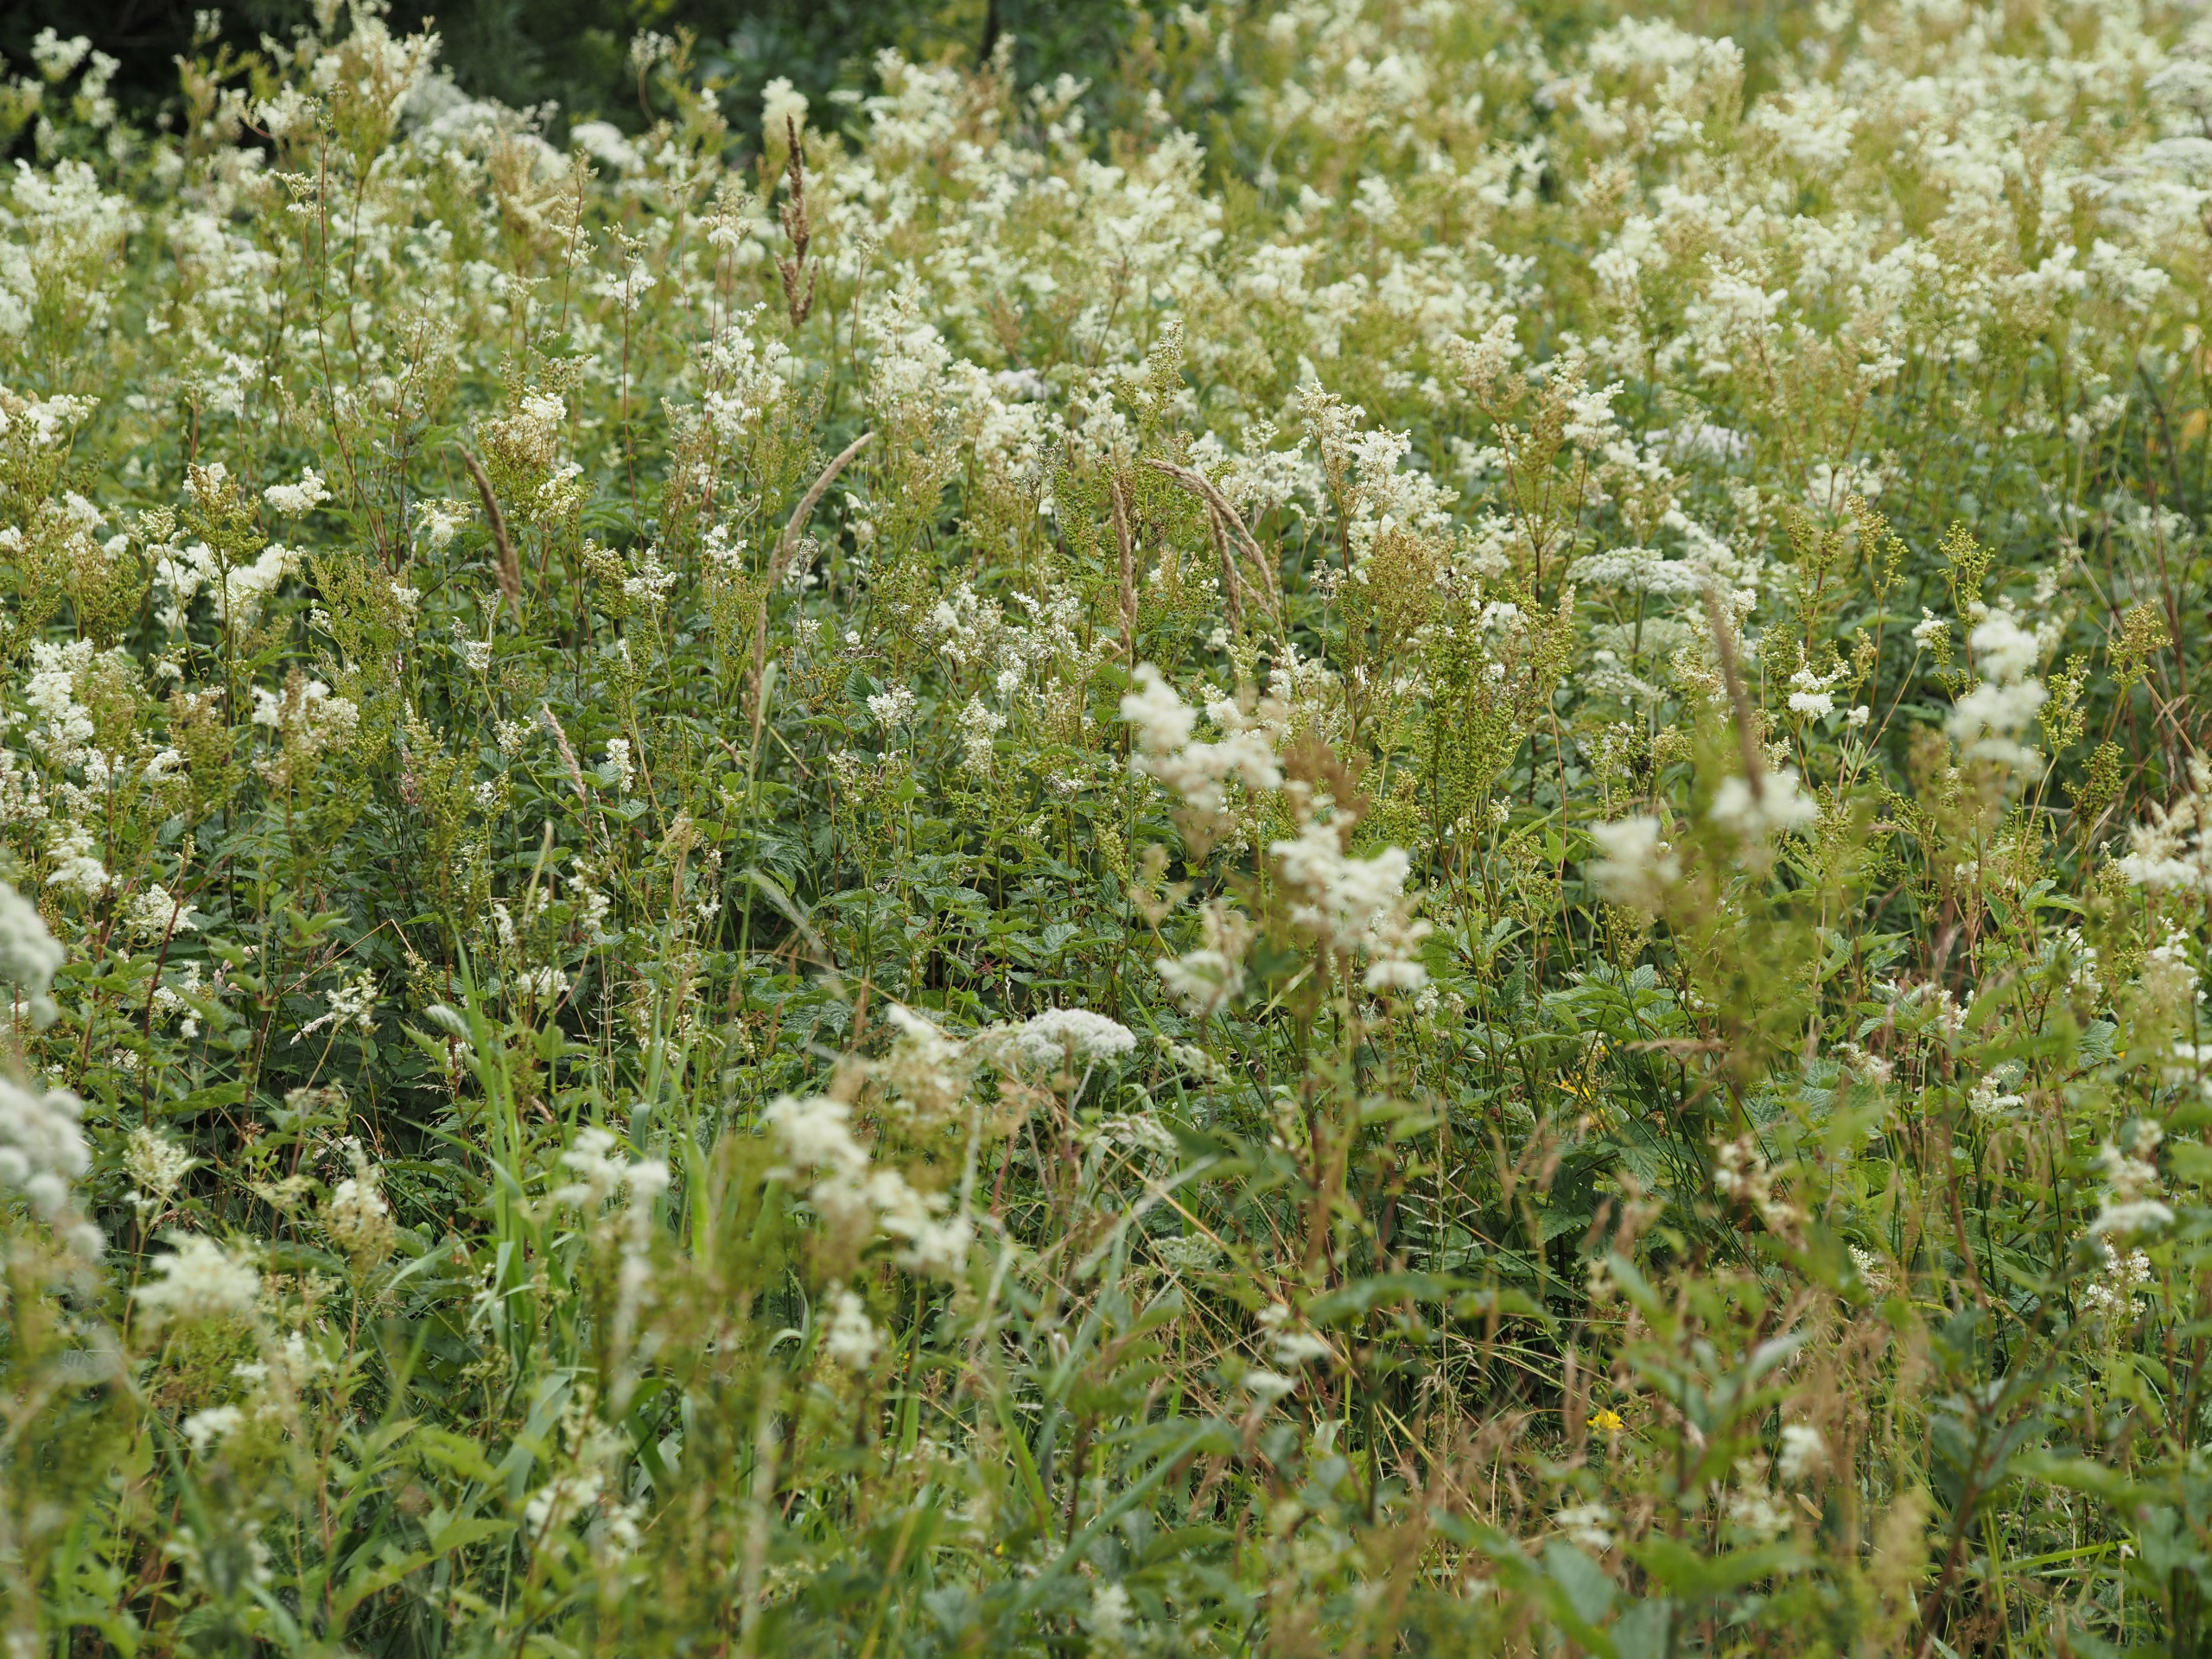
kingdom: Plantae
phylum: Tracheophyta
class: Magnoliopsida
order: Rosales
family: Rosaceae
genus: Filipendula
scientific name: Filipendula ulmaria
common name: Almindelig mjødurt
